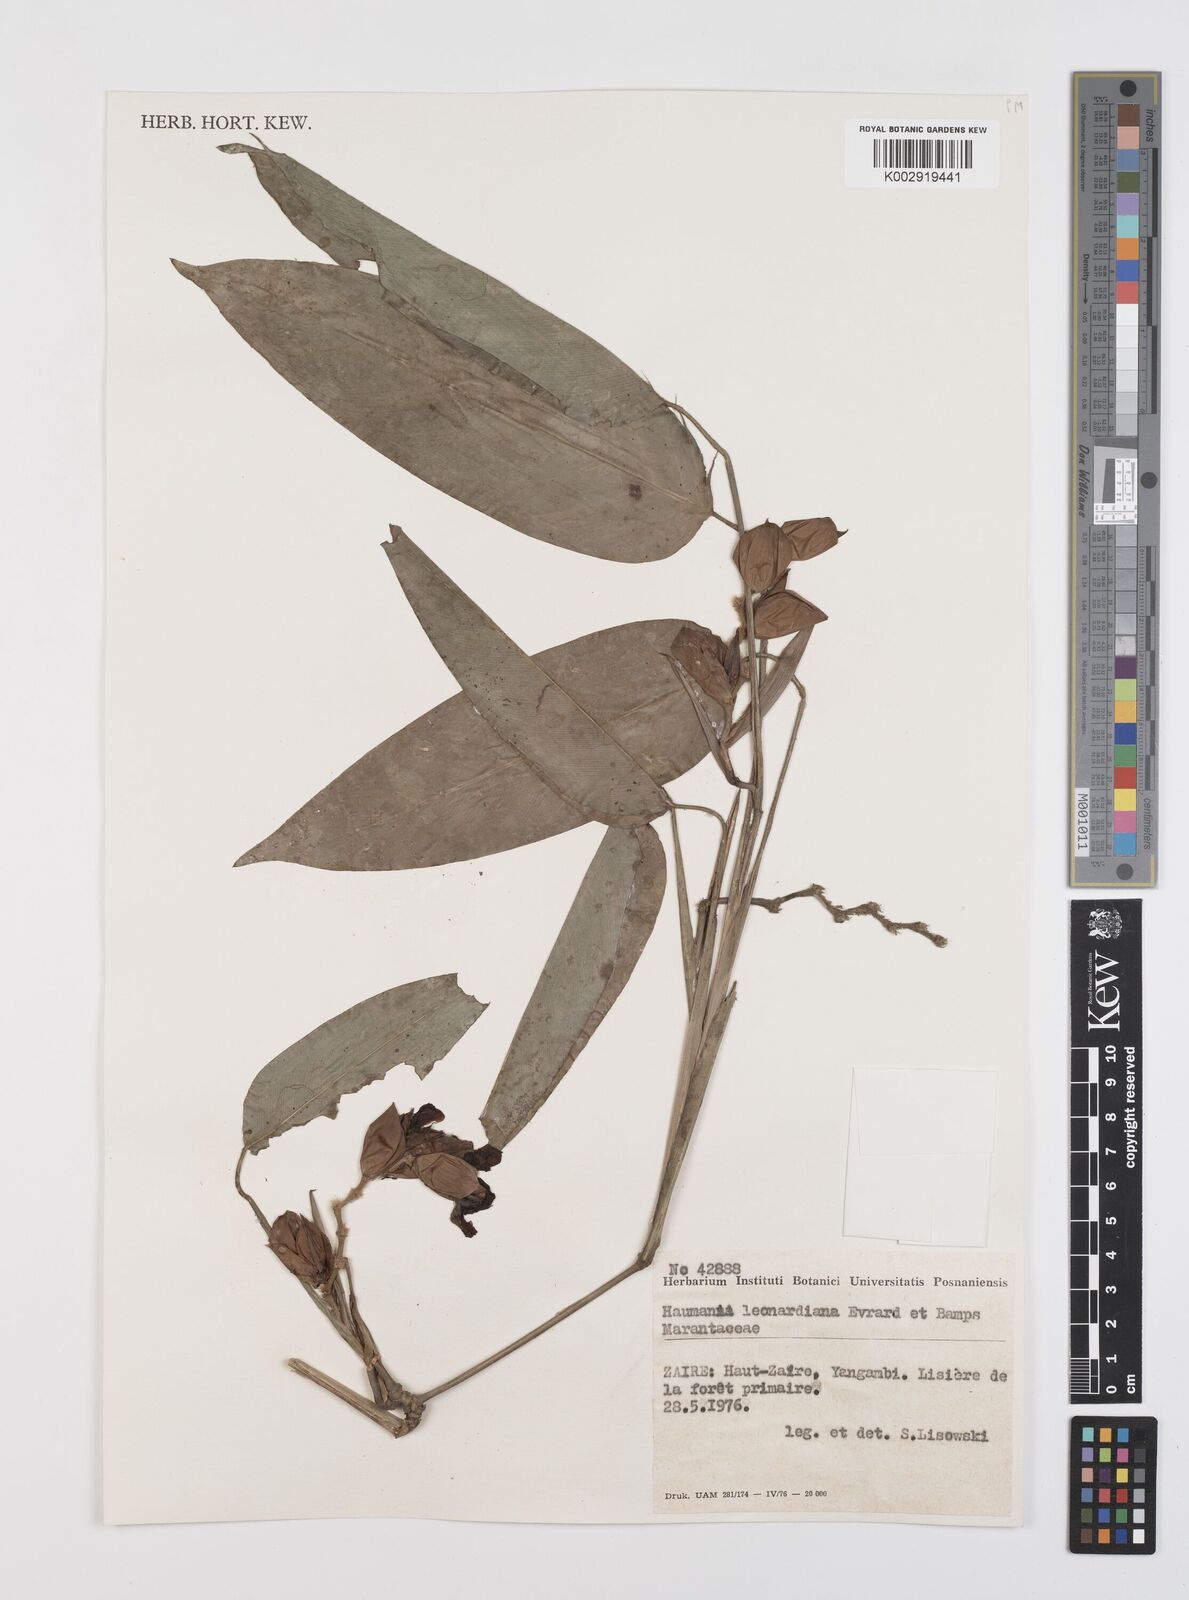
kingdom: Plantae
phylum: Tracheophyta
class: Liliopsida
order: Zingiberales
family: Marantaceae
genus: Haumania
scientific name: Haumania leonardiana
